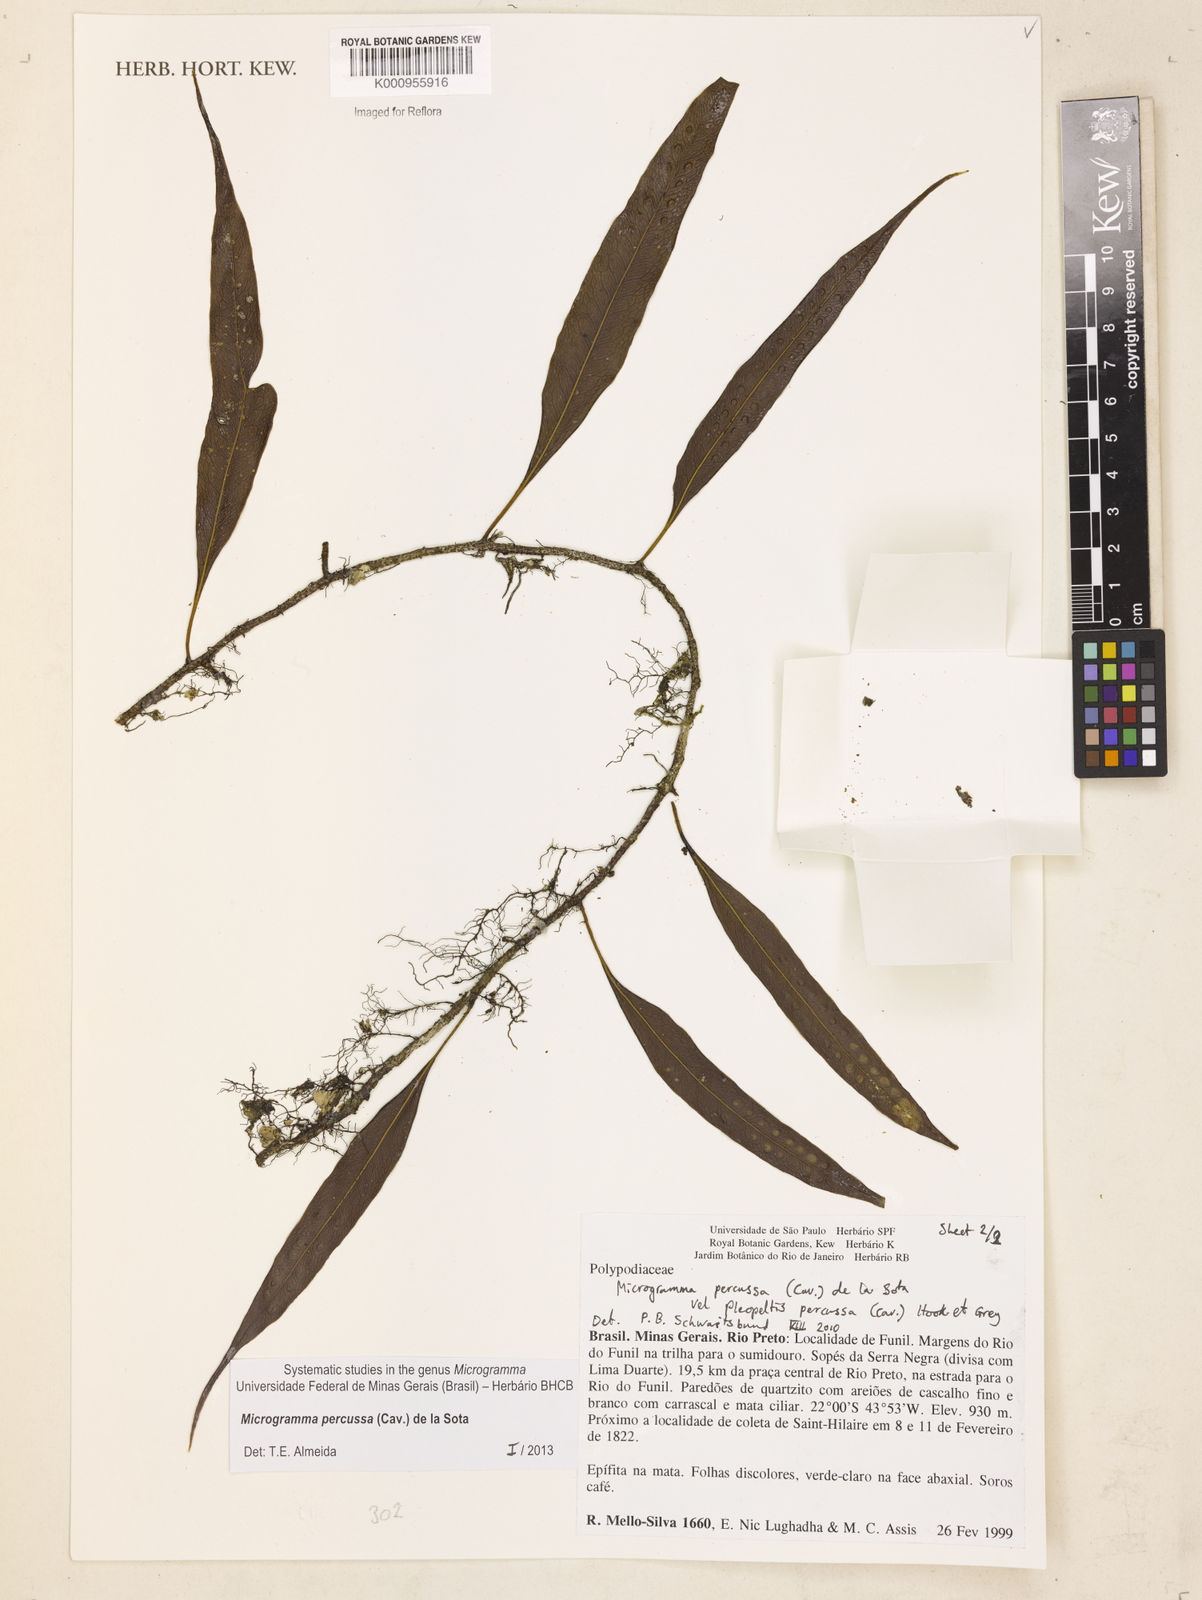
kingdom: Plantae
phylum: Tracheophyta
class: Polypodiopsida
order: Polypodiales
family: Polypodiaceae
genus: Microgramma
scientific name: Microgramma percussa
